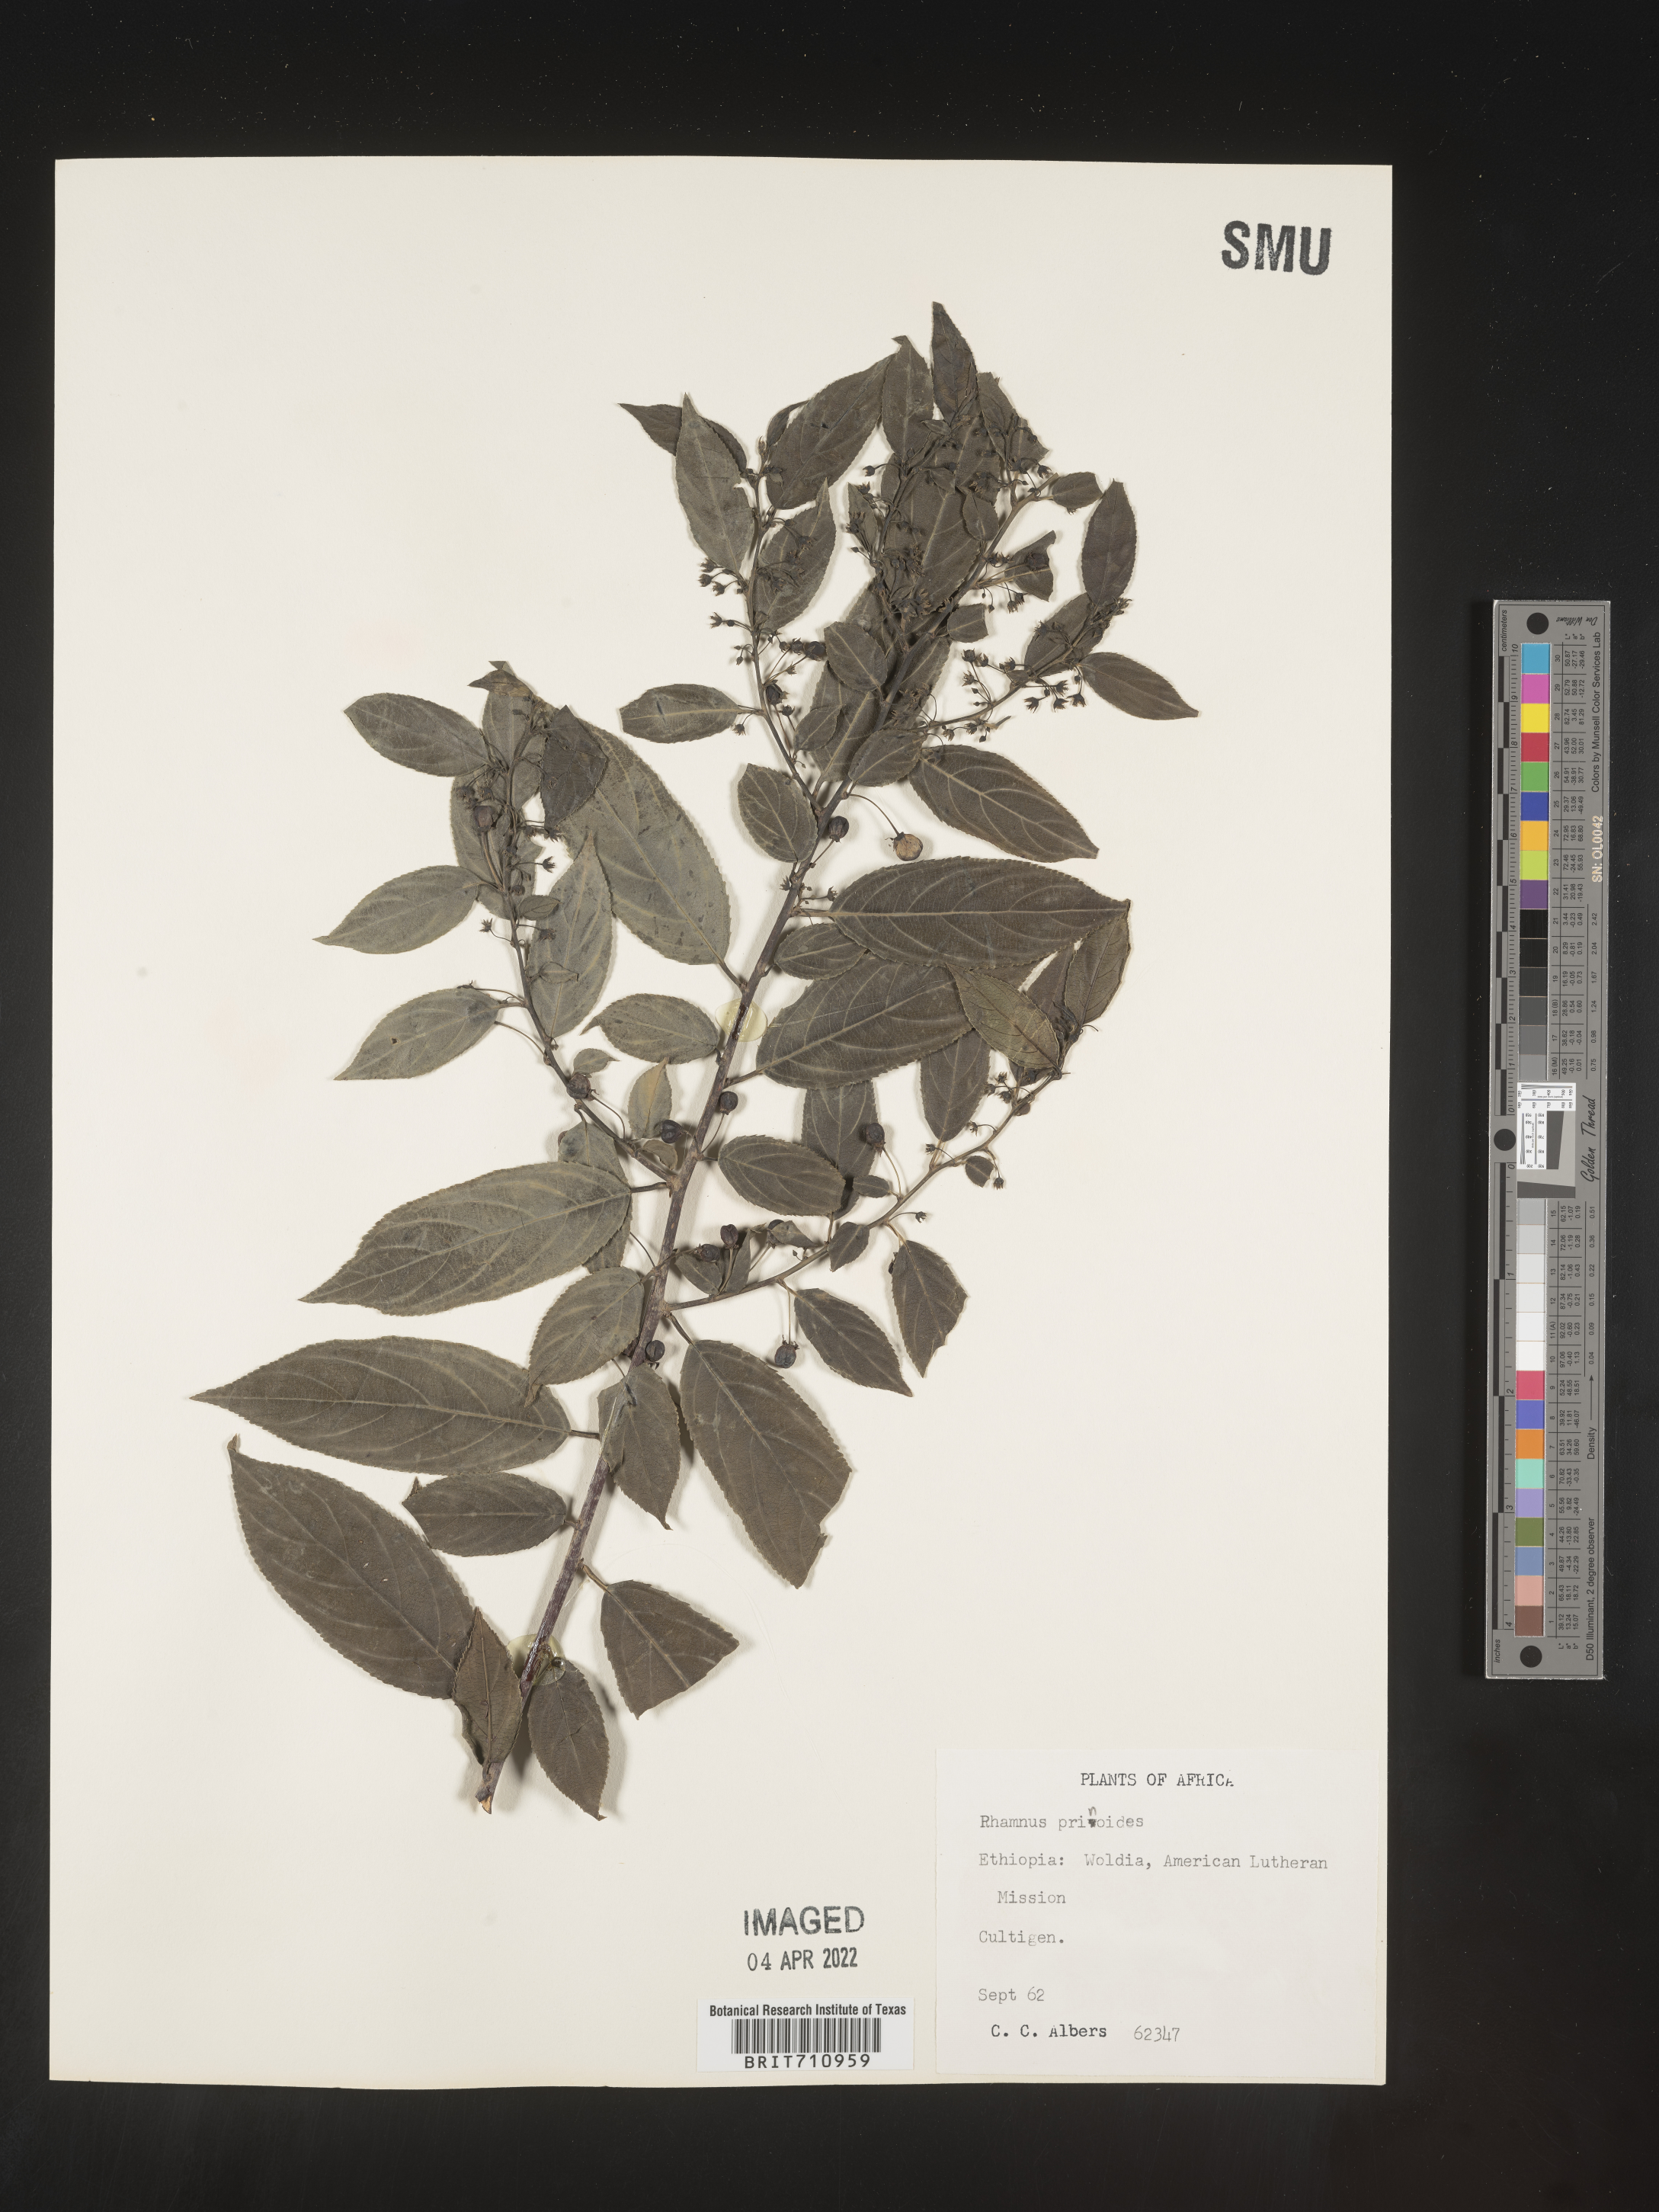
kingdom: Plantae
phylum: Tracheophyta
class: Magnoliopsida
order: Rosales
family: Rhamnaceae
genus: Rhamnus
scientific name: Rhamnus
